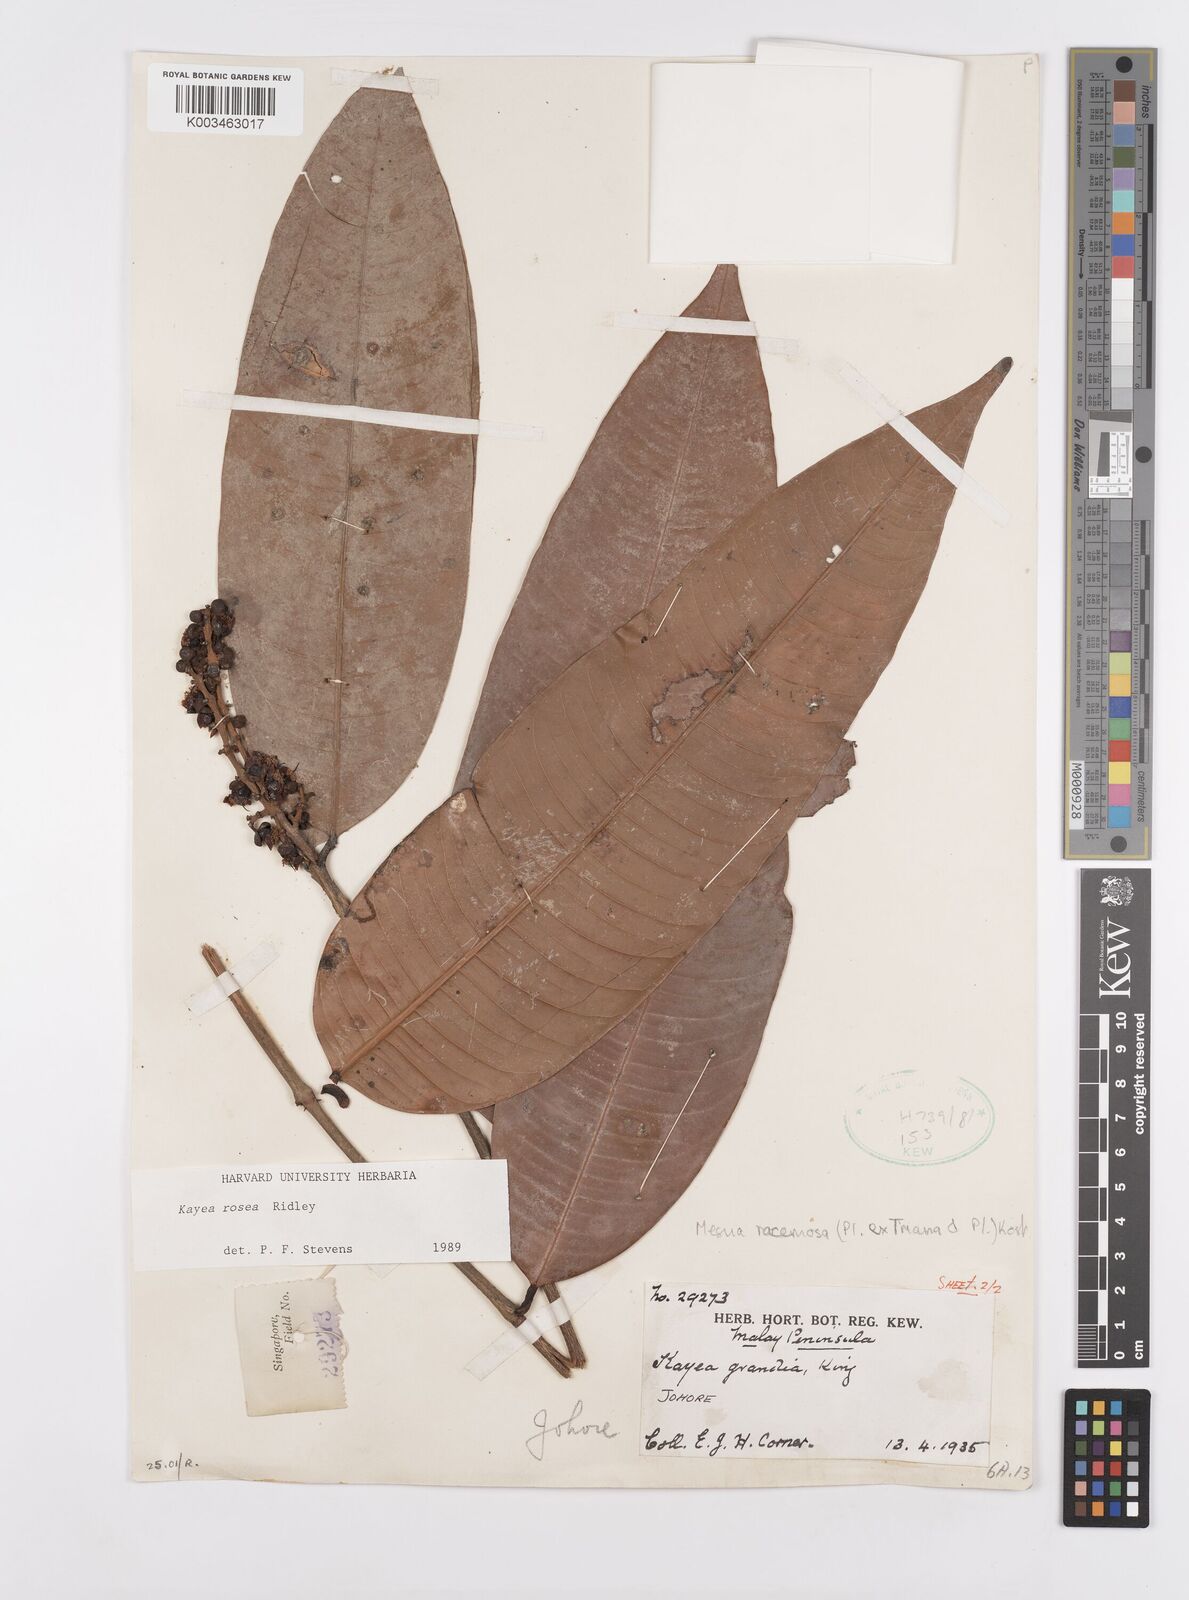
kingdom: Plantae
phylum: Tracheophyta
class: Magnoliopsida
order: Malpighiales
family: Calophyllaceae
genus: Kayea
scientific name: Kayea rosea
